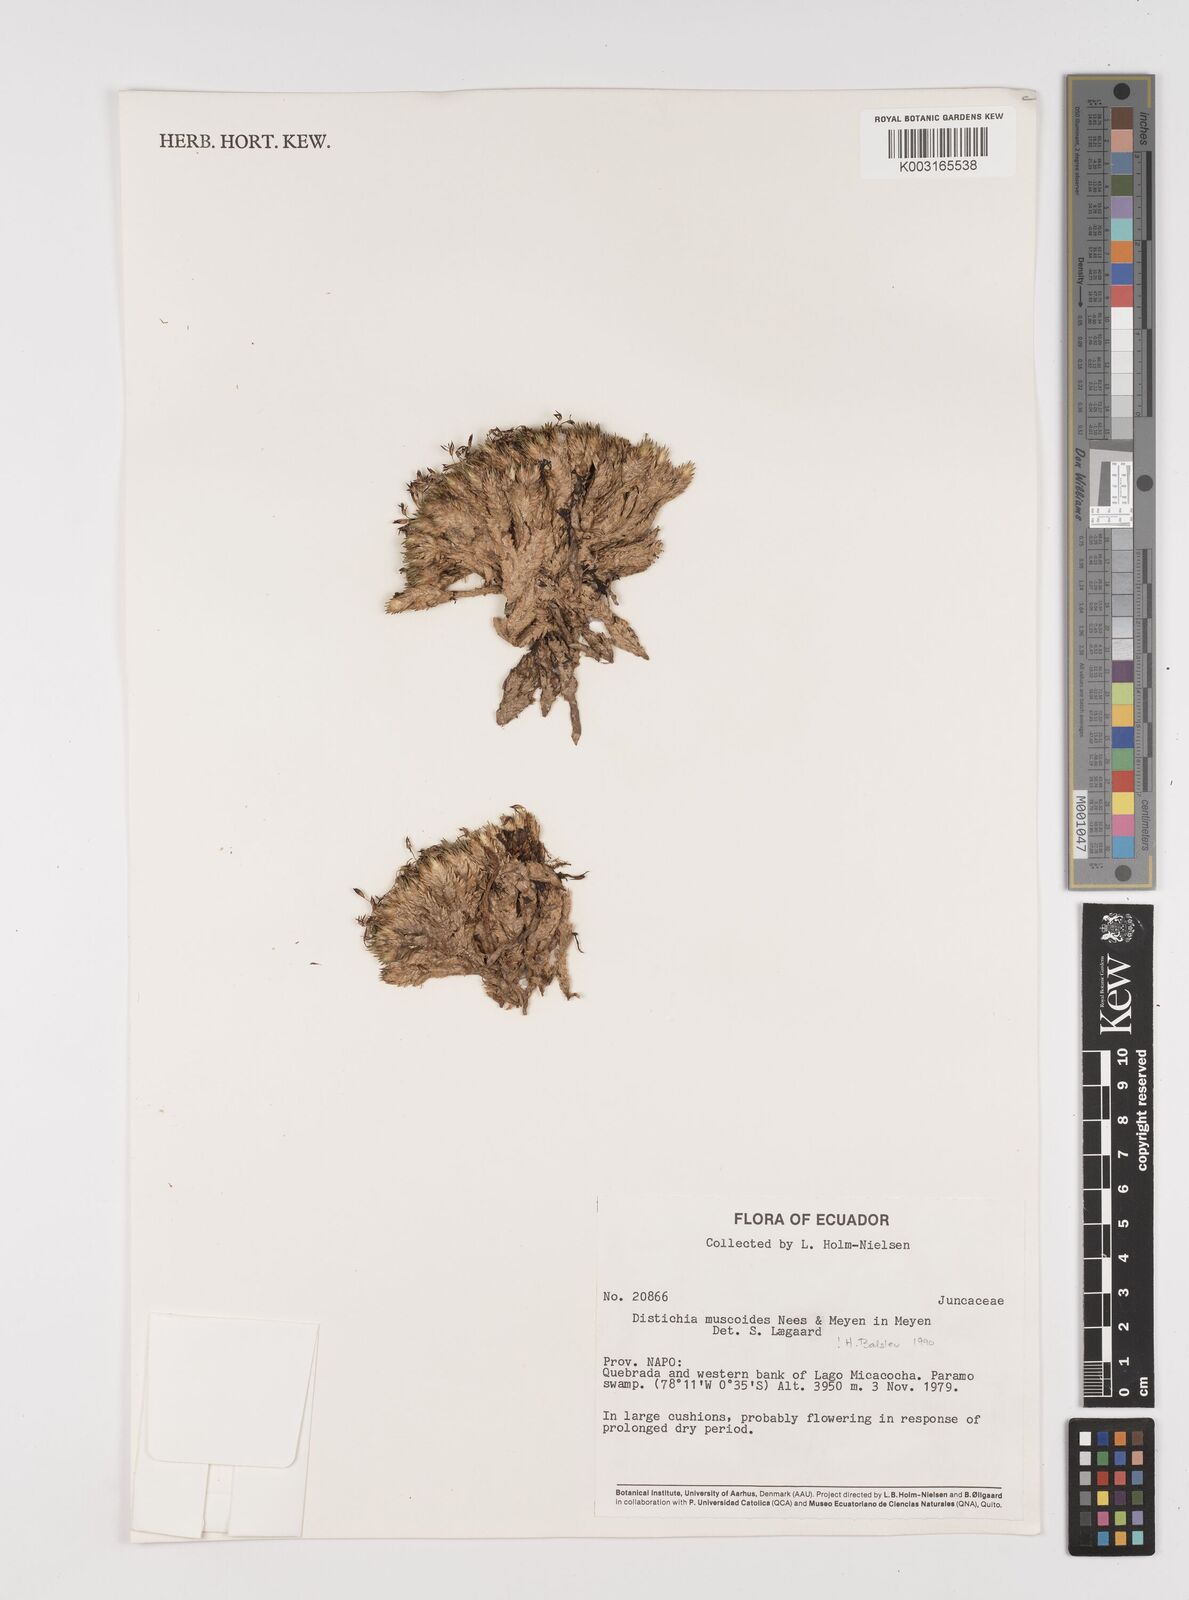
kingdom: Plantae
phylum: Tracheophyta
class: Liliopsida
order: Poales
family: Juncaceae
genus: Distichia
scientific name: Distichia muscoides
